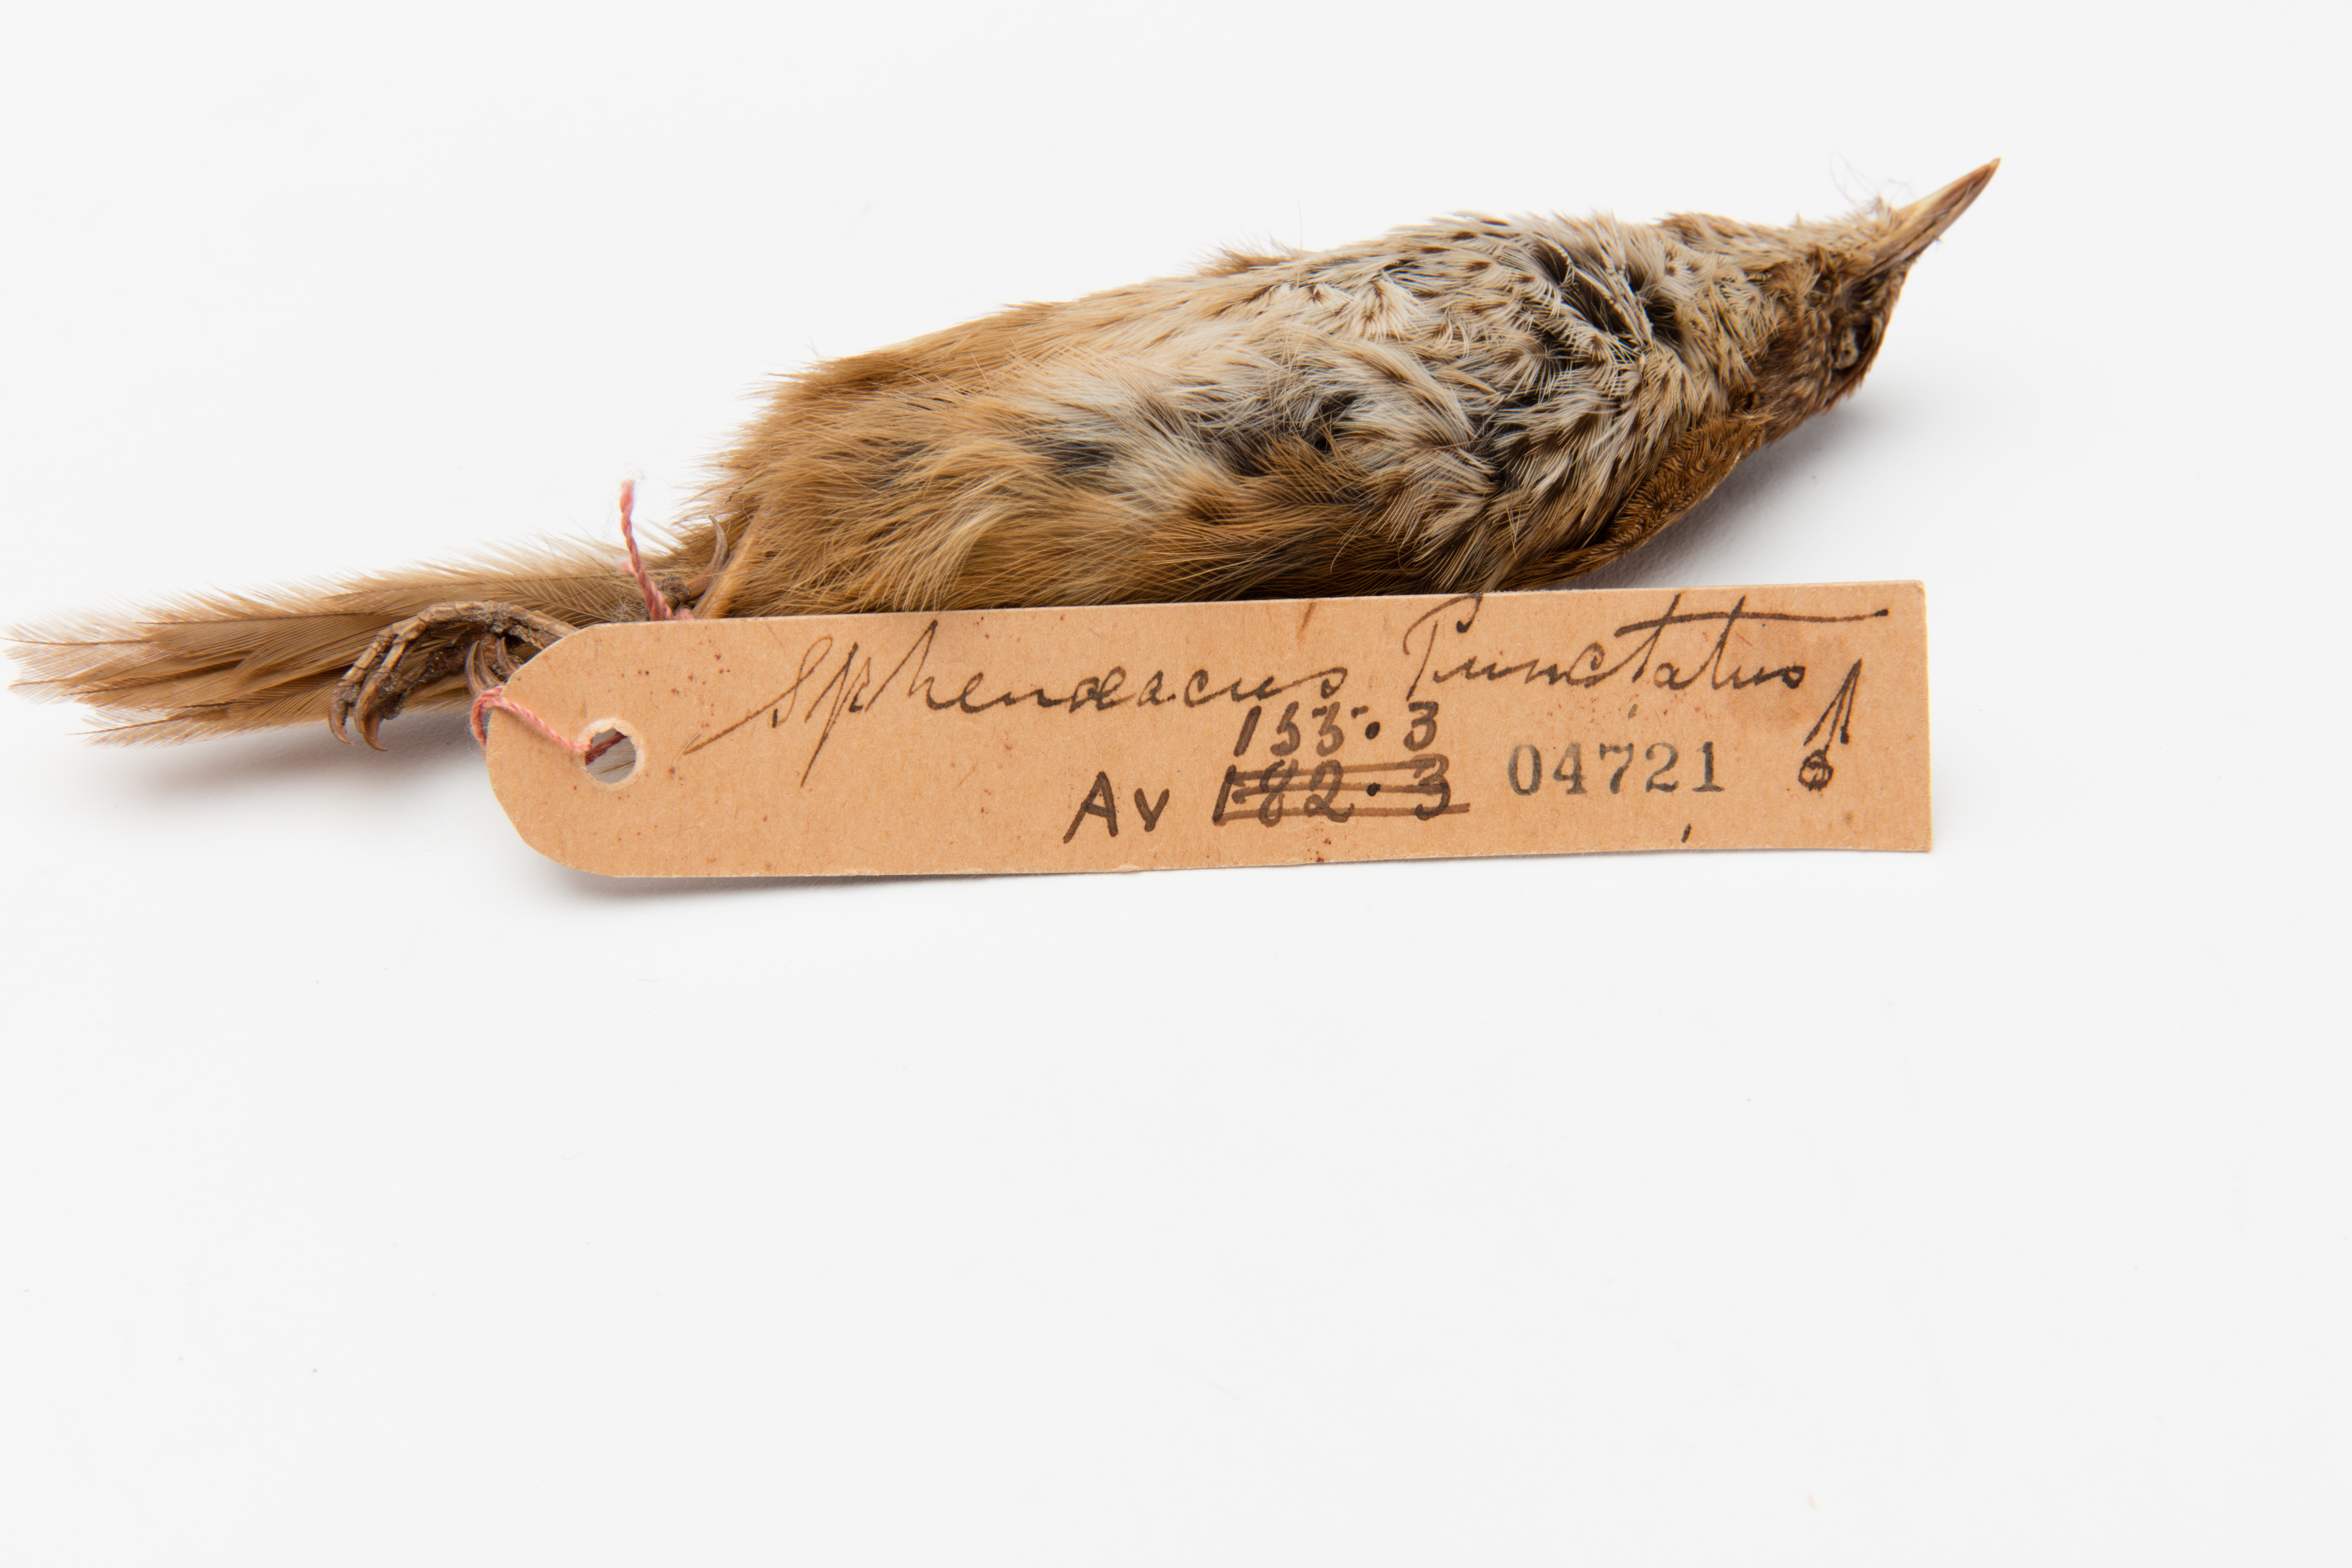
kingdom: Animalia
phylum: Chordata
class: Aves
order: Passeriformes
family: Locustellidae
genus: Megalurus
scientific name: Megalurus punctatus
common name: New zealand fernbird
